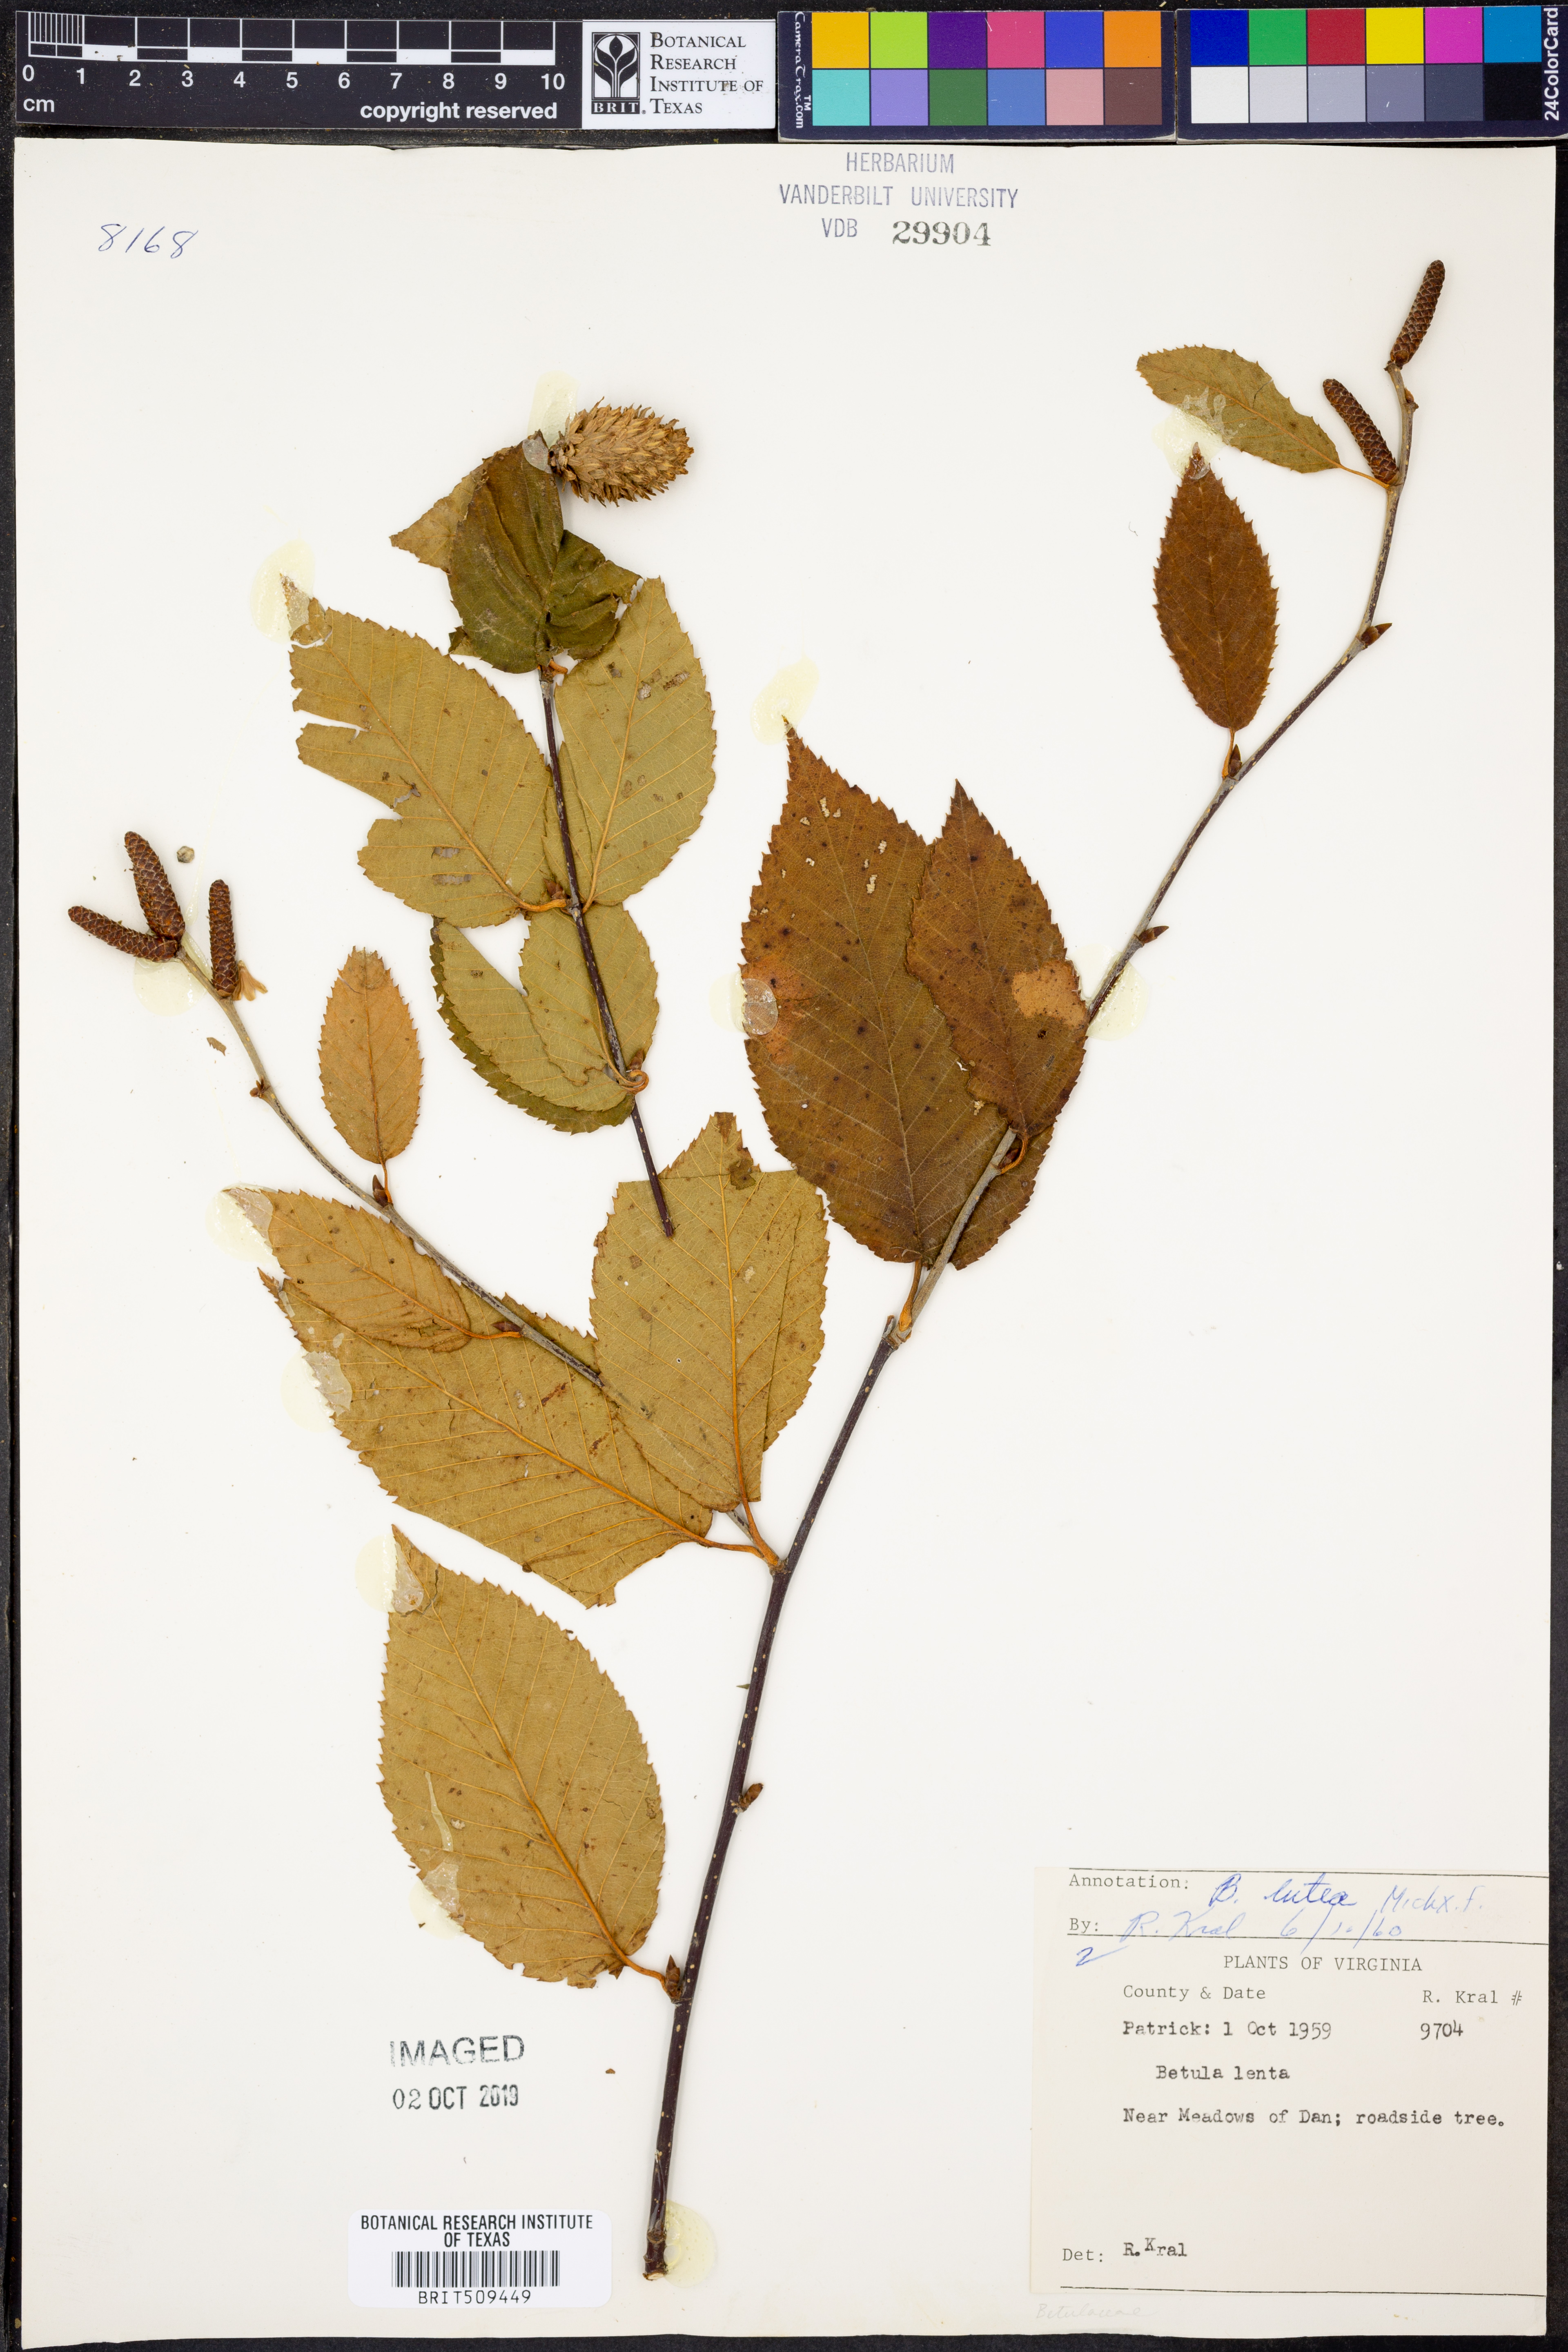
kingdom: Plantae
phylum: Tracheophyta
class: Magnoliopsida
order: Fagales
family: Betulaceae
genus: Betula
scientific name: Betula alleghaniensis
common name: Yellow birch
